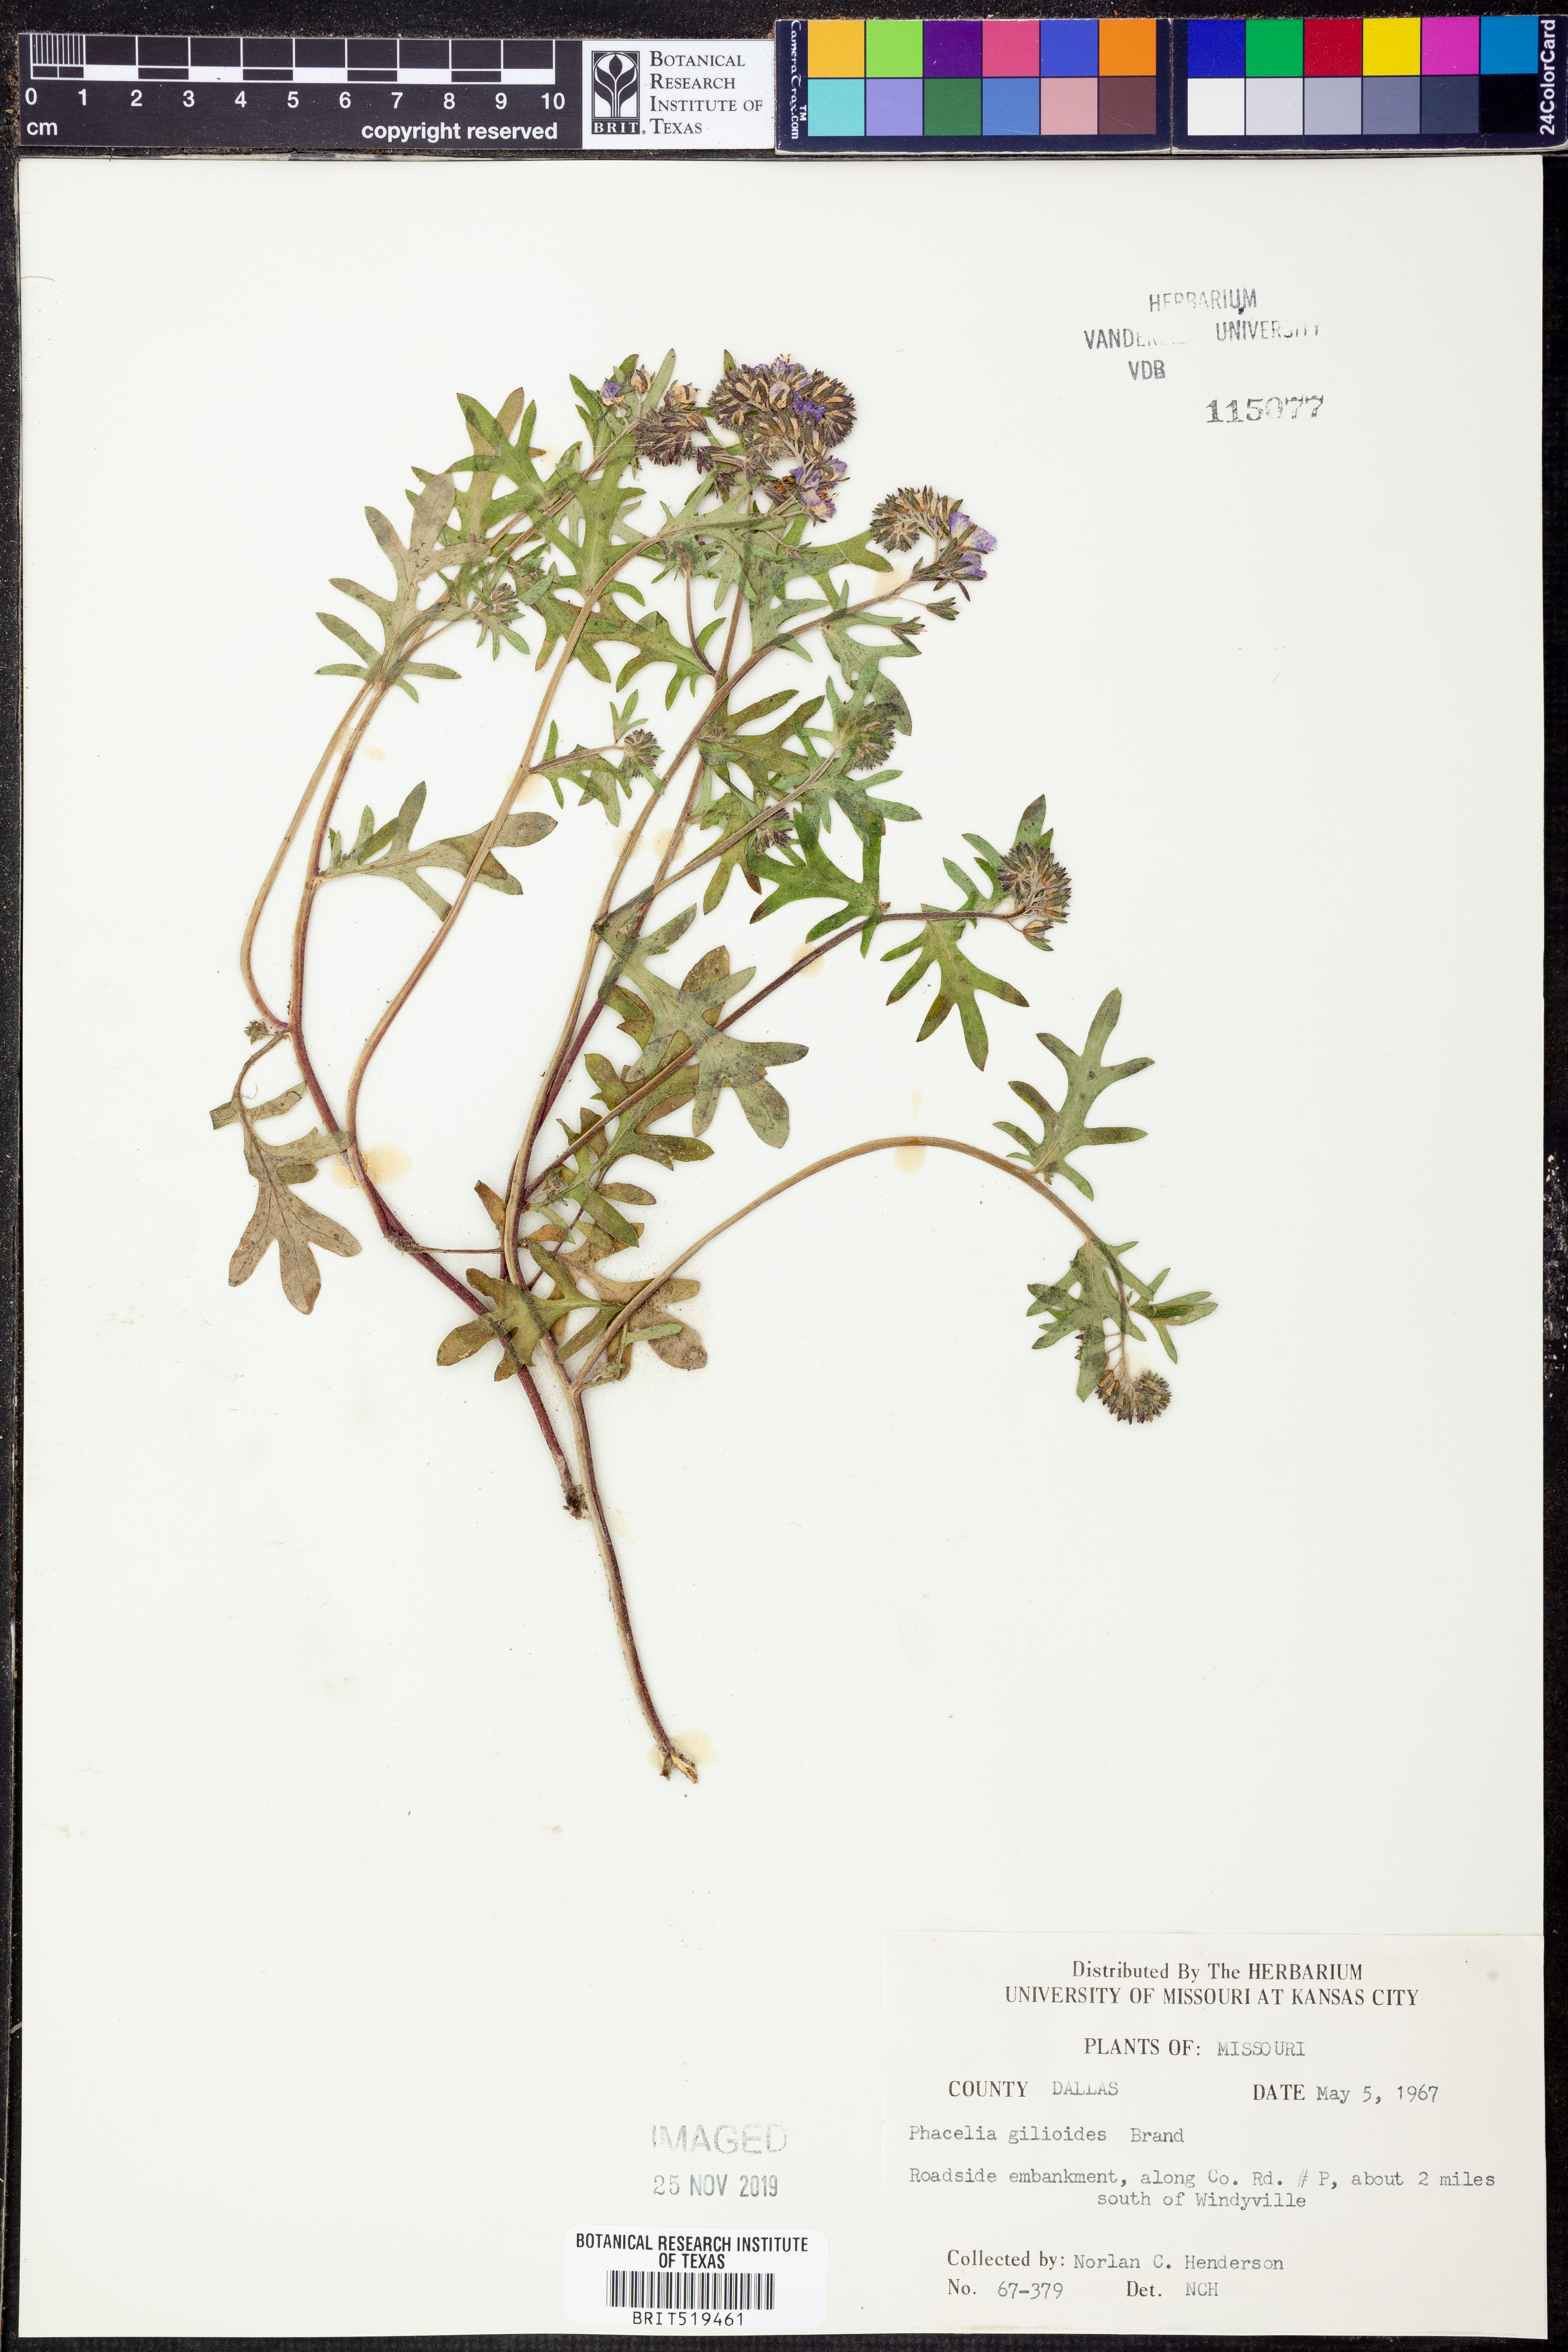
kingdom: Plantae
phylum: Tracheophyta
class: Magnoliopsida
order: Boraginales
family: Hydrophyllaceae
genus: Phacelia
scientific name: Phacelia gilioides
